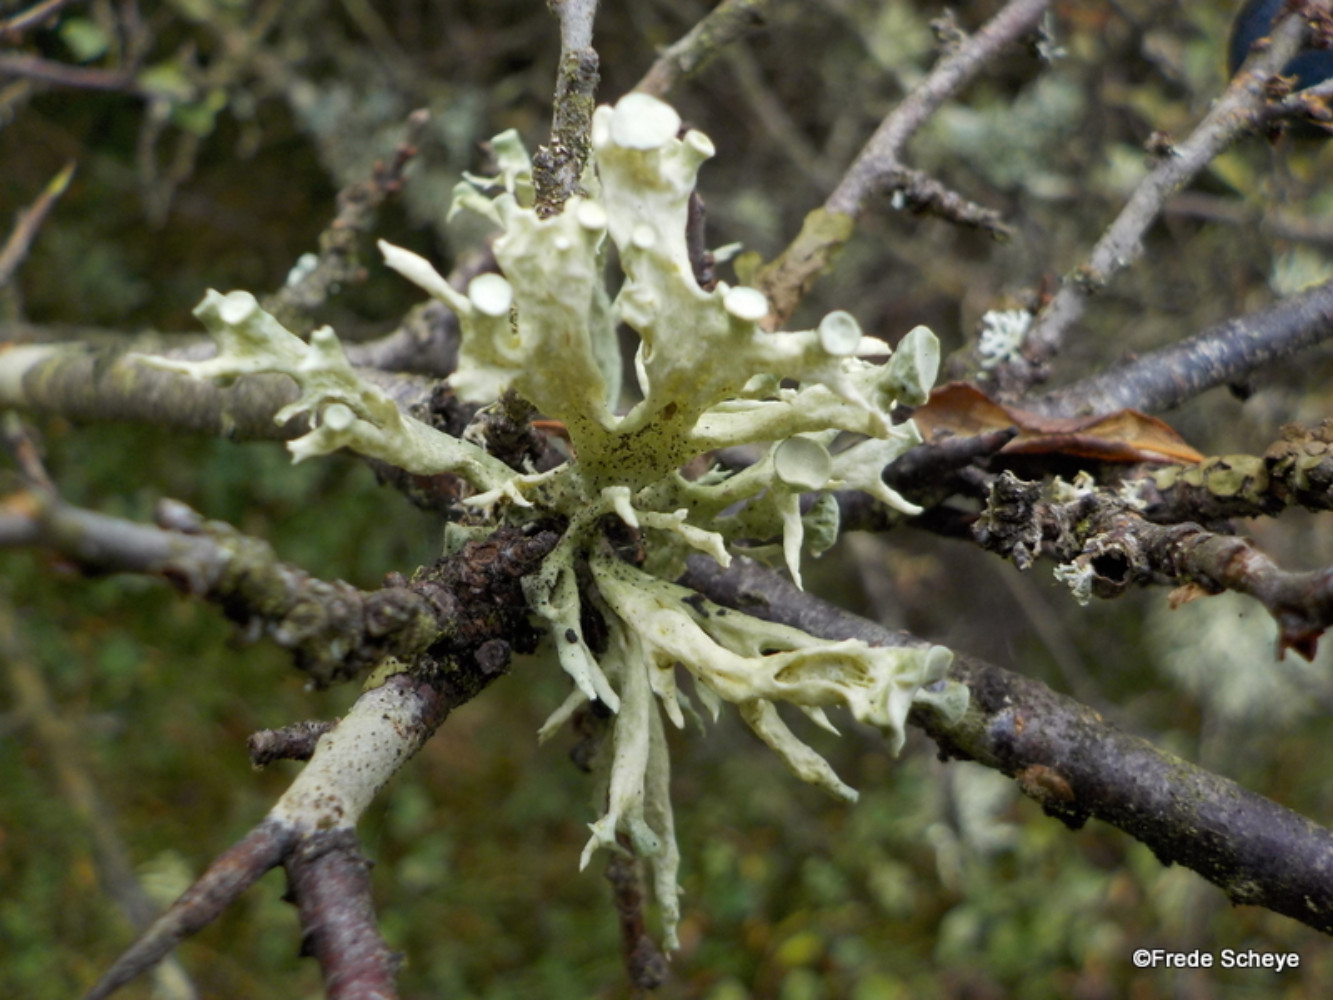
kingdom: Fungi
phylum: Ascomycota
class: Lecanoromycetes
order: Lecanorales
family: Ramalinaceae
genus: Ramalina
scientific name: Ramalina fastigiata
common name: tue-grenlav
